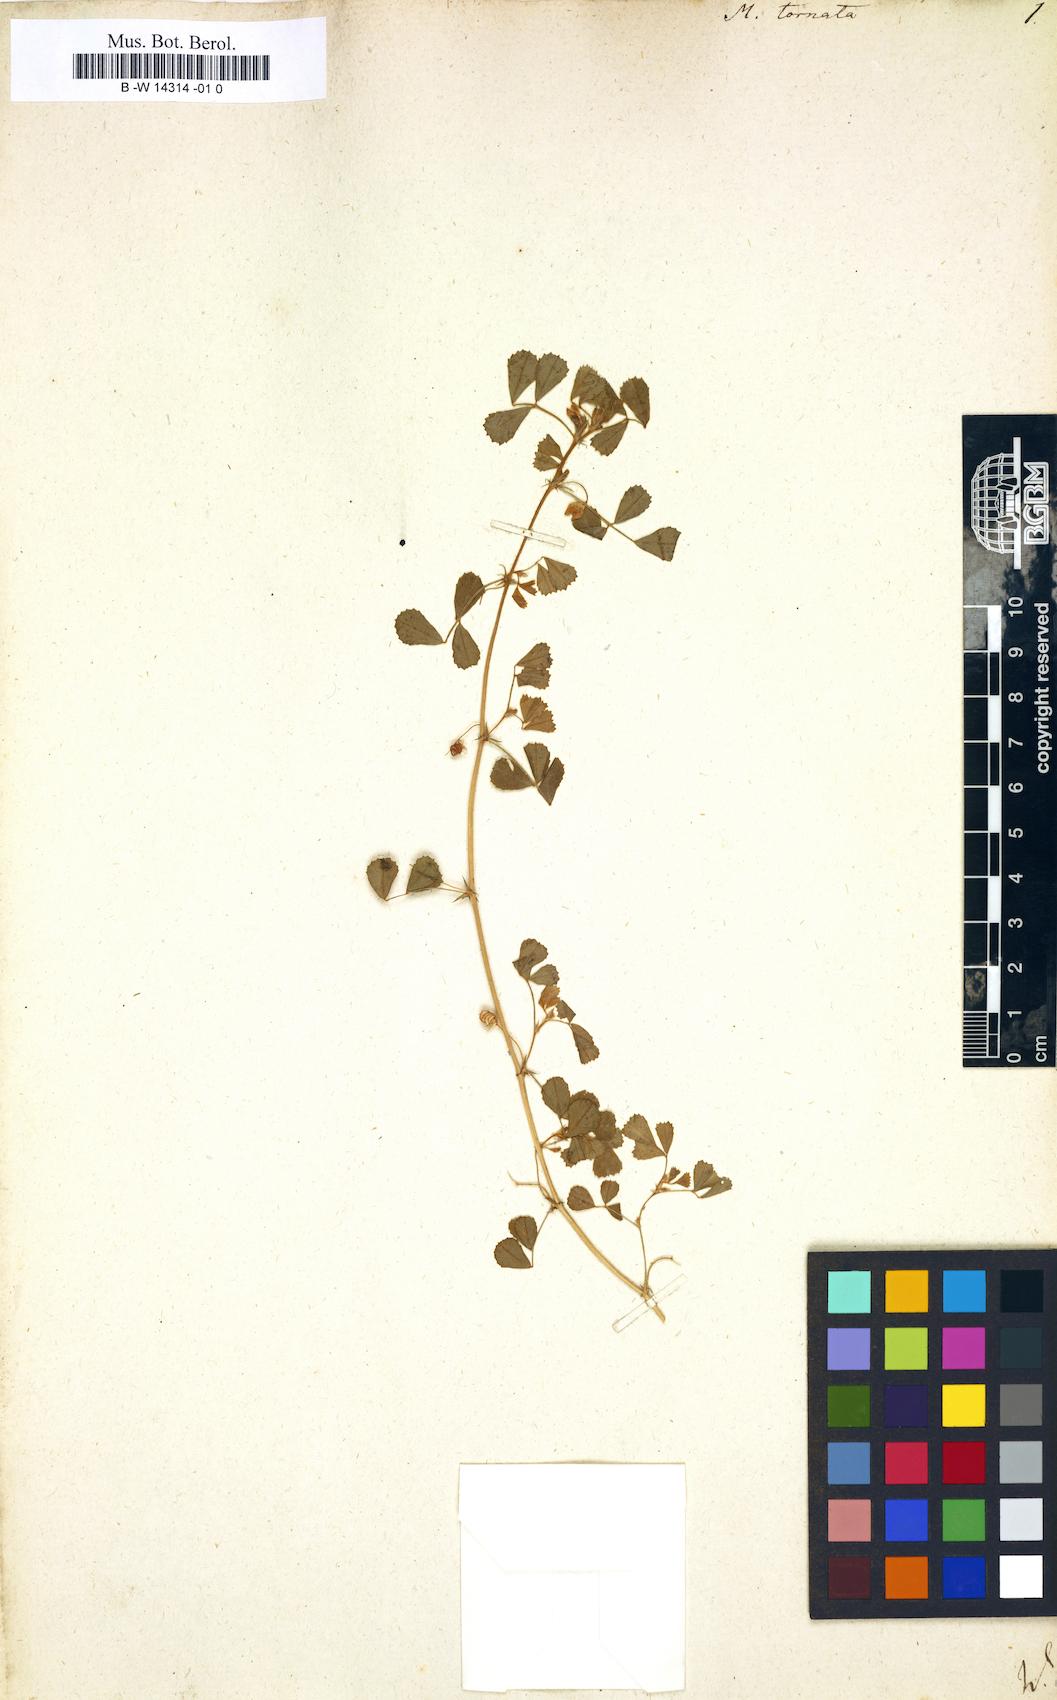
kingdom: Plantae
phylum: Tracheophyta
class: Magnoliopsida
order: Fabales
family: Fabaceae
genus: Medicago
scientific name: Medicago tornata
